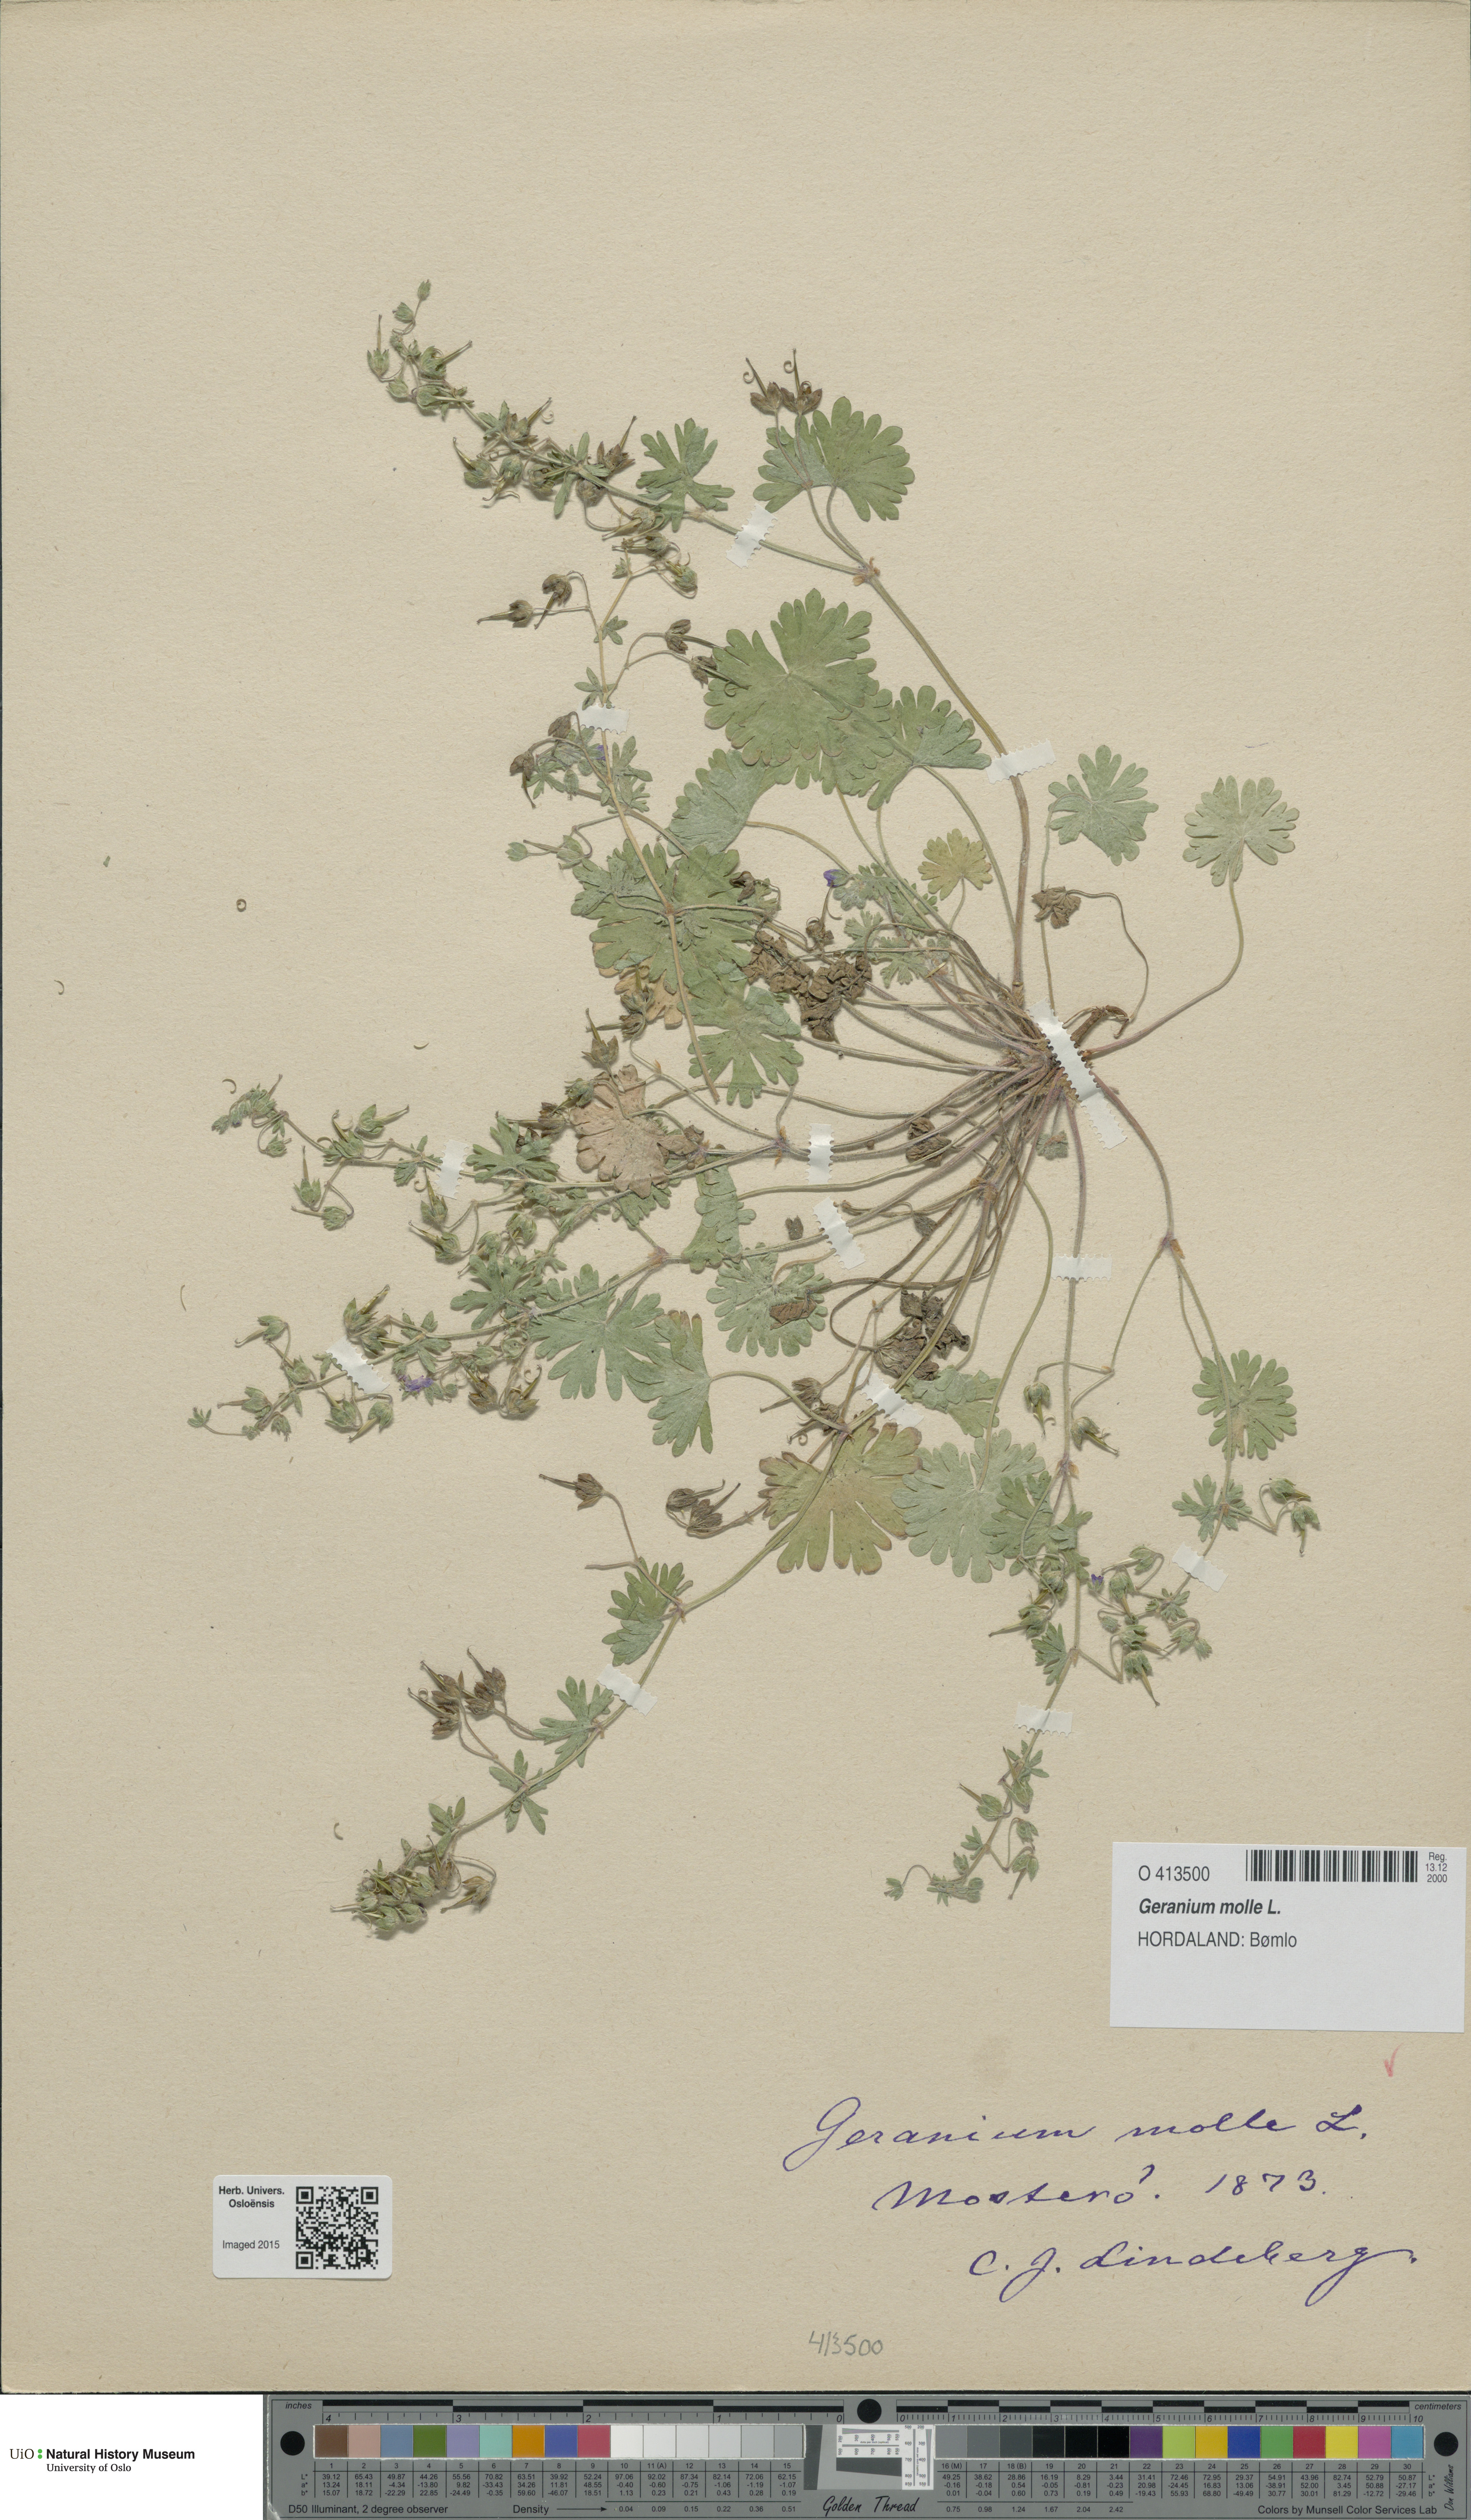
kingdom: Plantae
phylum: Tracheophyta
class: Magnoliopsida
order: Geraniales
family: Geraniaceae
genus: Geranium
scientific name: Geranium molle
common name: Dove's-foot crane's-bill
